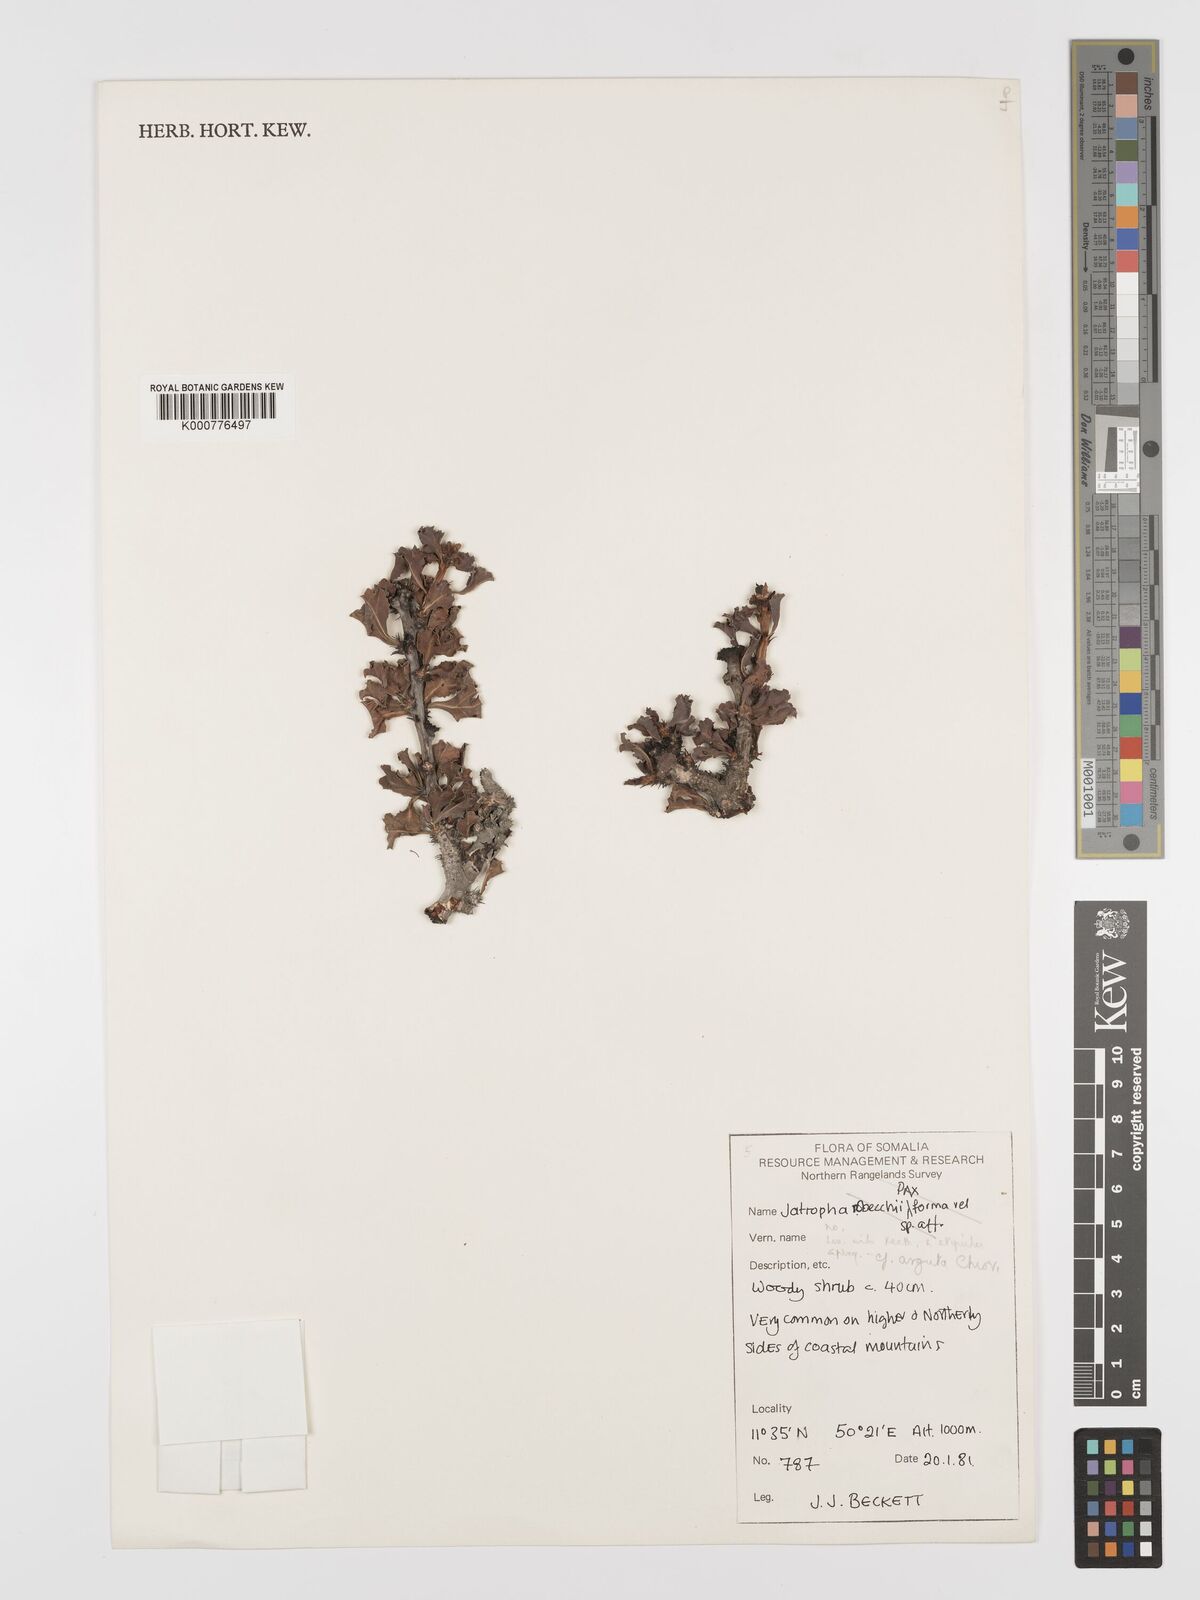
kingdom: Plantae
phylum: Tracheophyta
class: Magnoliopsida
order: Malpighiales
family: Euphorbiaceae
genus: Jatropha
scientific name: Jatropha robecchii
